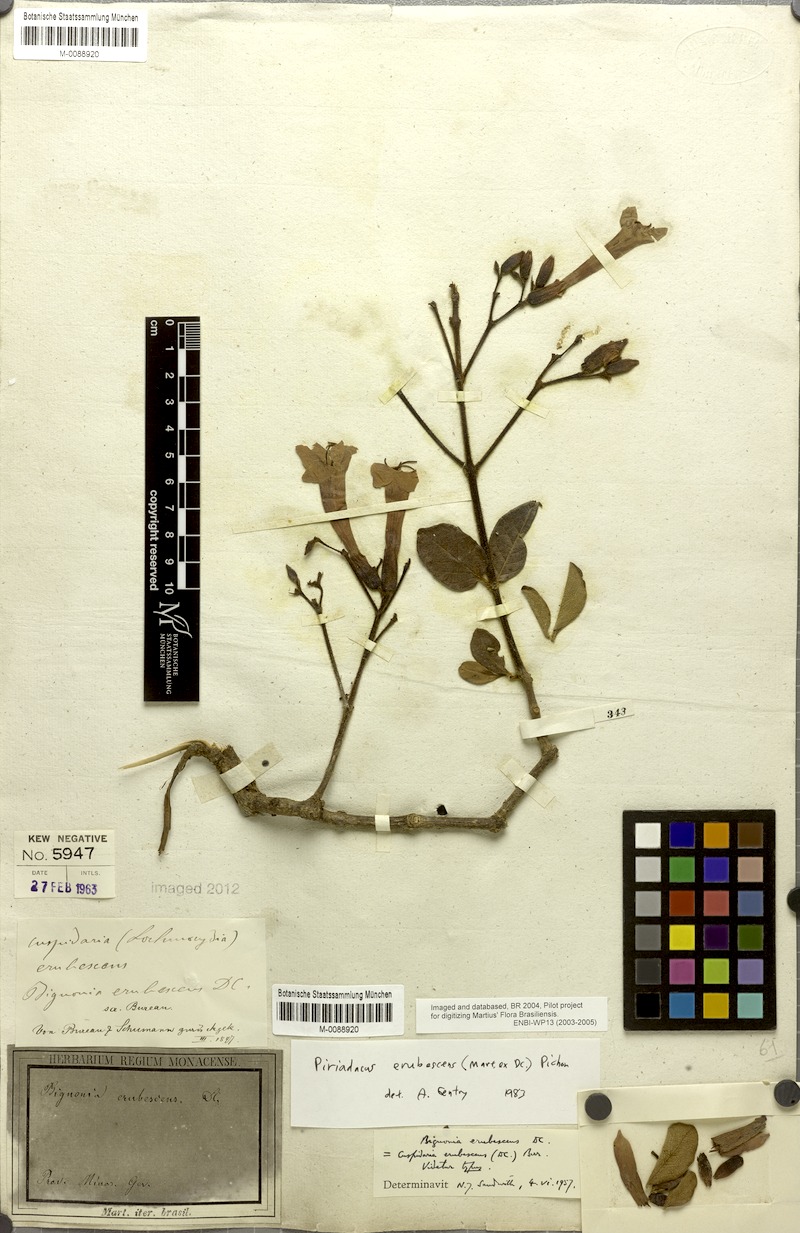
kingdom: Plantae
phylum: Tracheophyta
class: Magnoliopsida
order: Lamiales
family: Bignoniaceae
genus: Fridericia
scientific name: Fridericia erubescens
